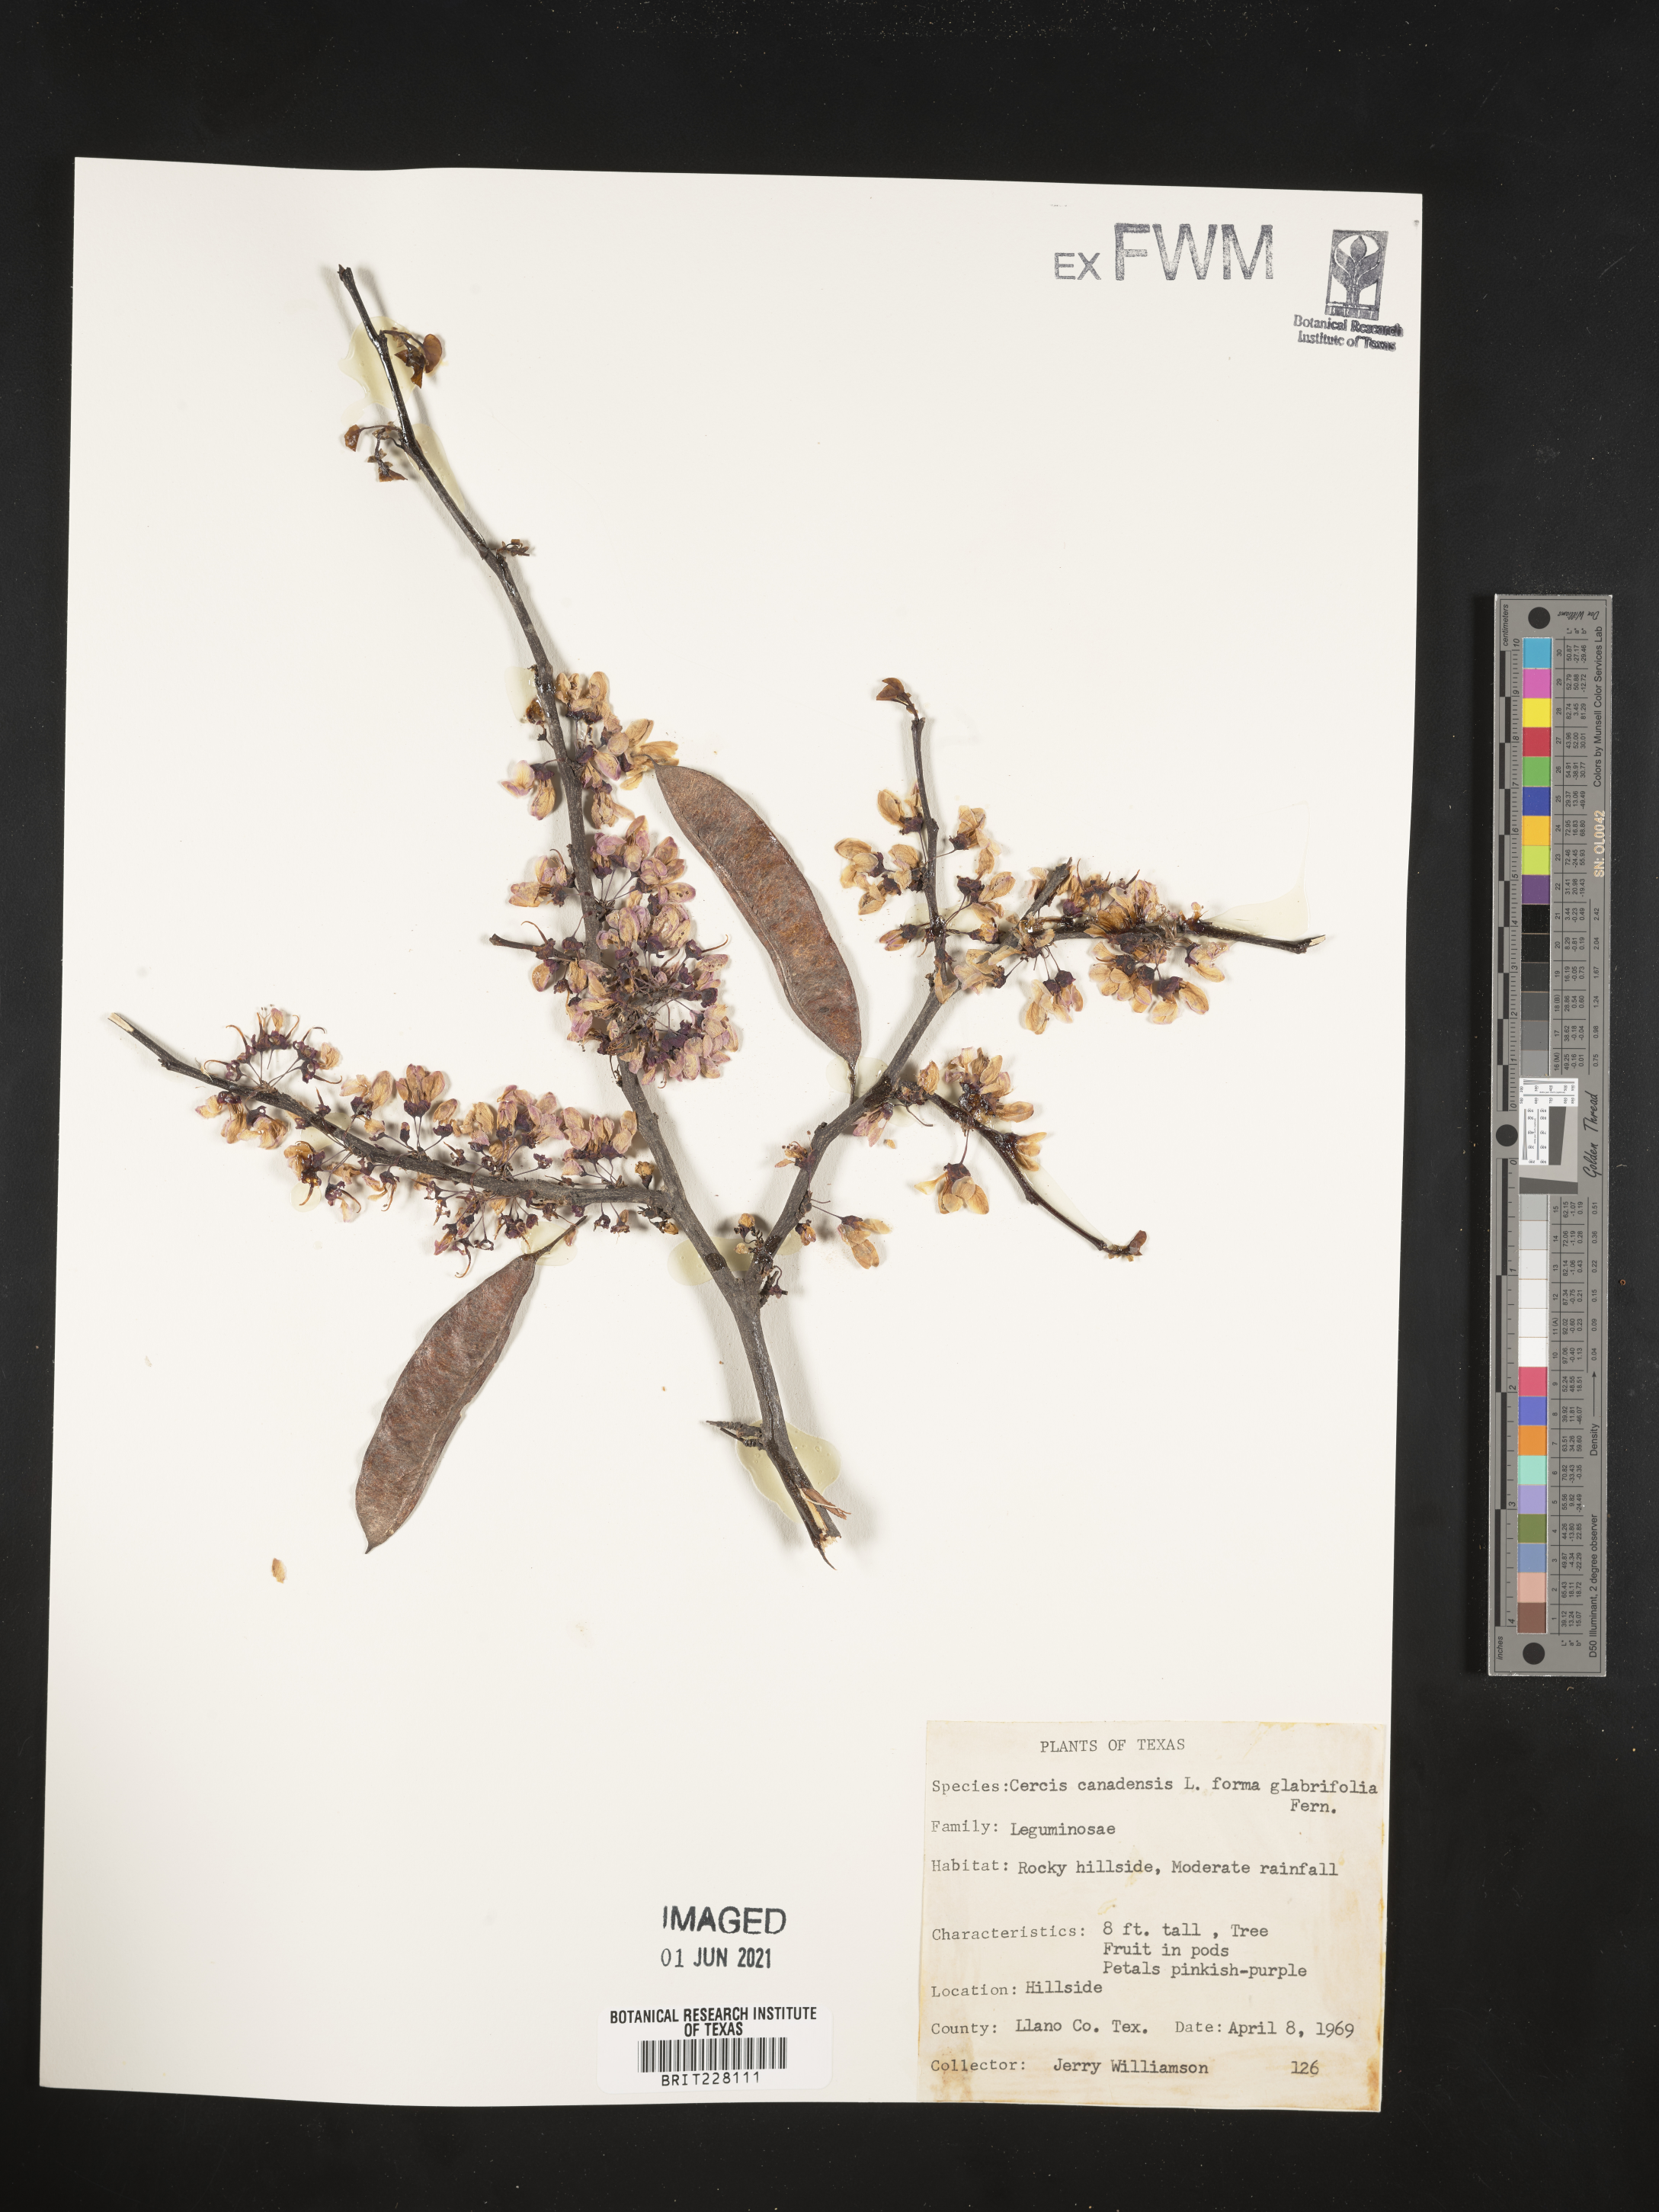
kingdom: Plantae
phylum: Tracheophyta
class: Magnoliopsida
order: Fabales
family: Fabaceae
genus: Cercis
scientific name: Cercis canadensis
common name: Eastern redbud
